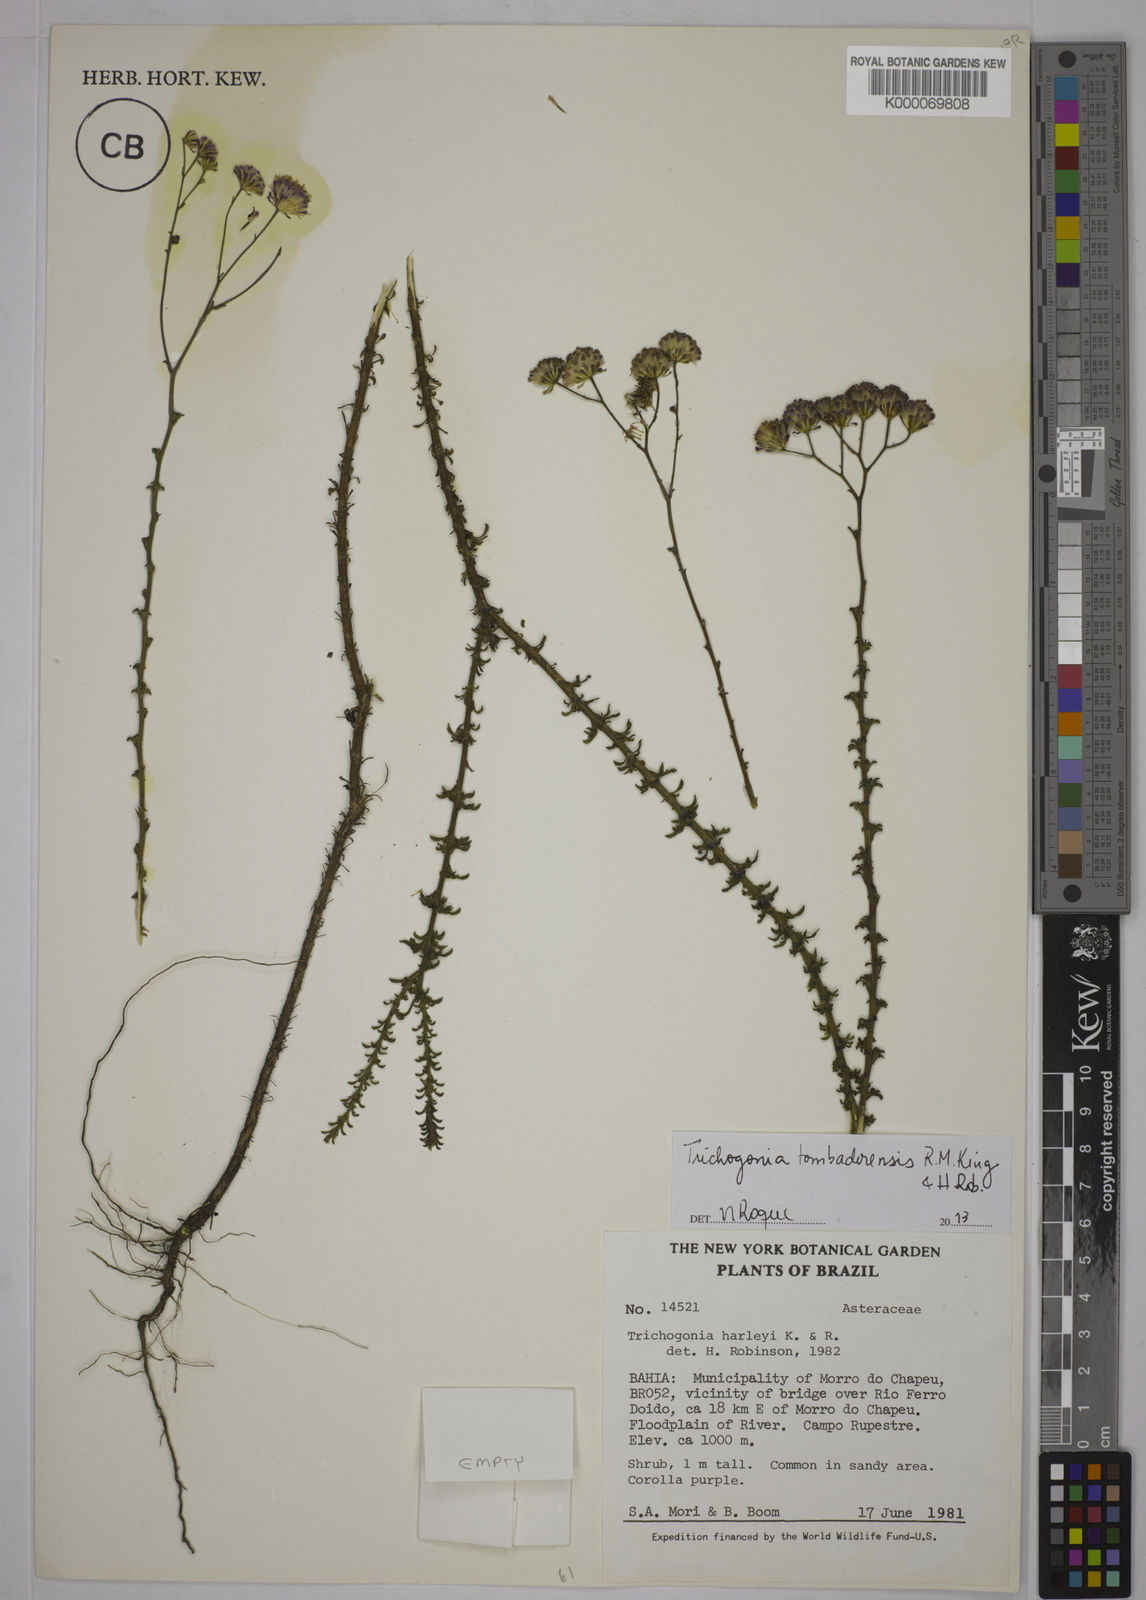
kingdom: Plantae
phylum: Tracheophyta
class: Magnoliopsida
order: Asterales
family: Asteraceae
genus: Trichogonia
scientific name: Trichogonia harleyi
